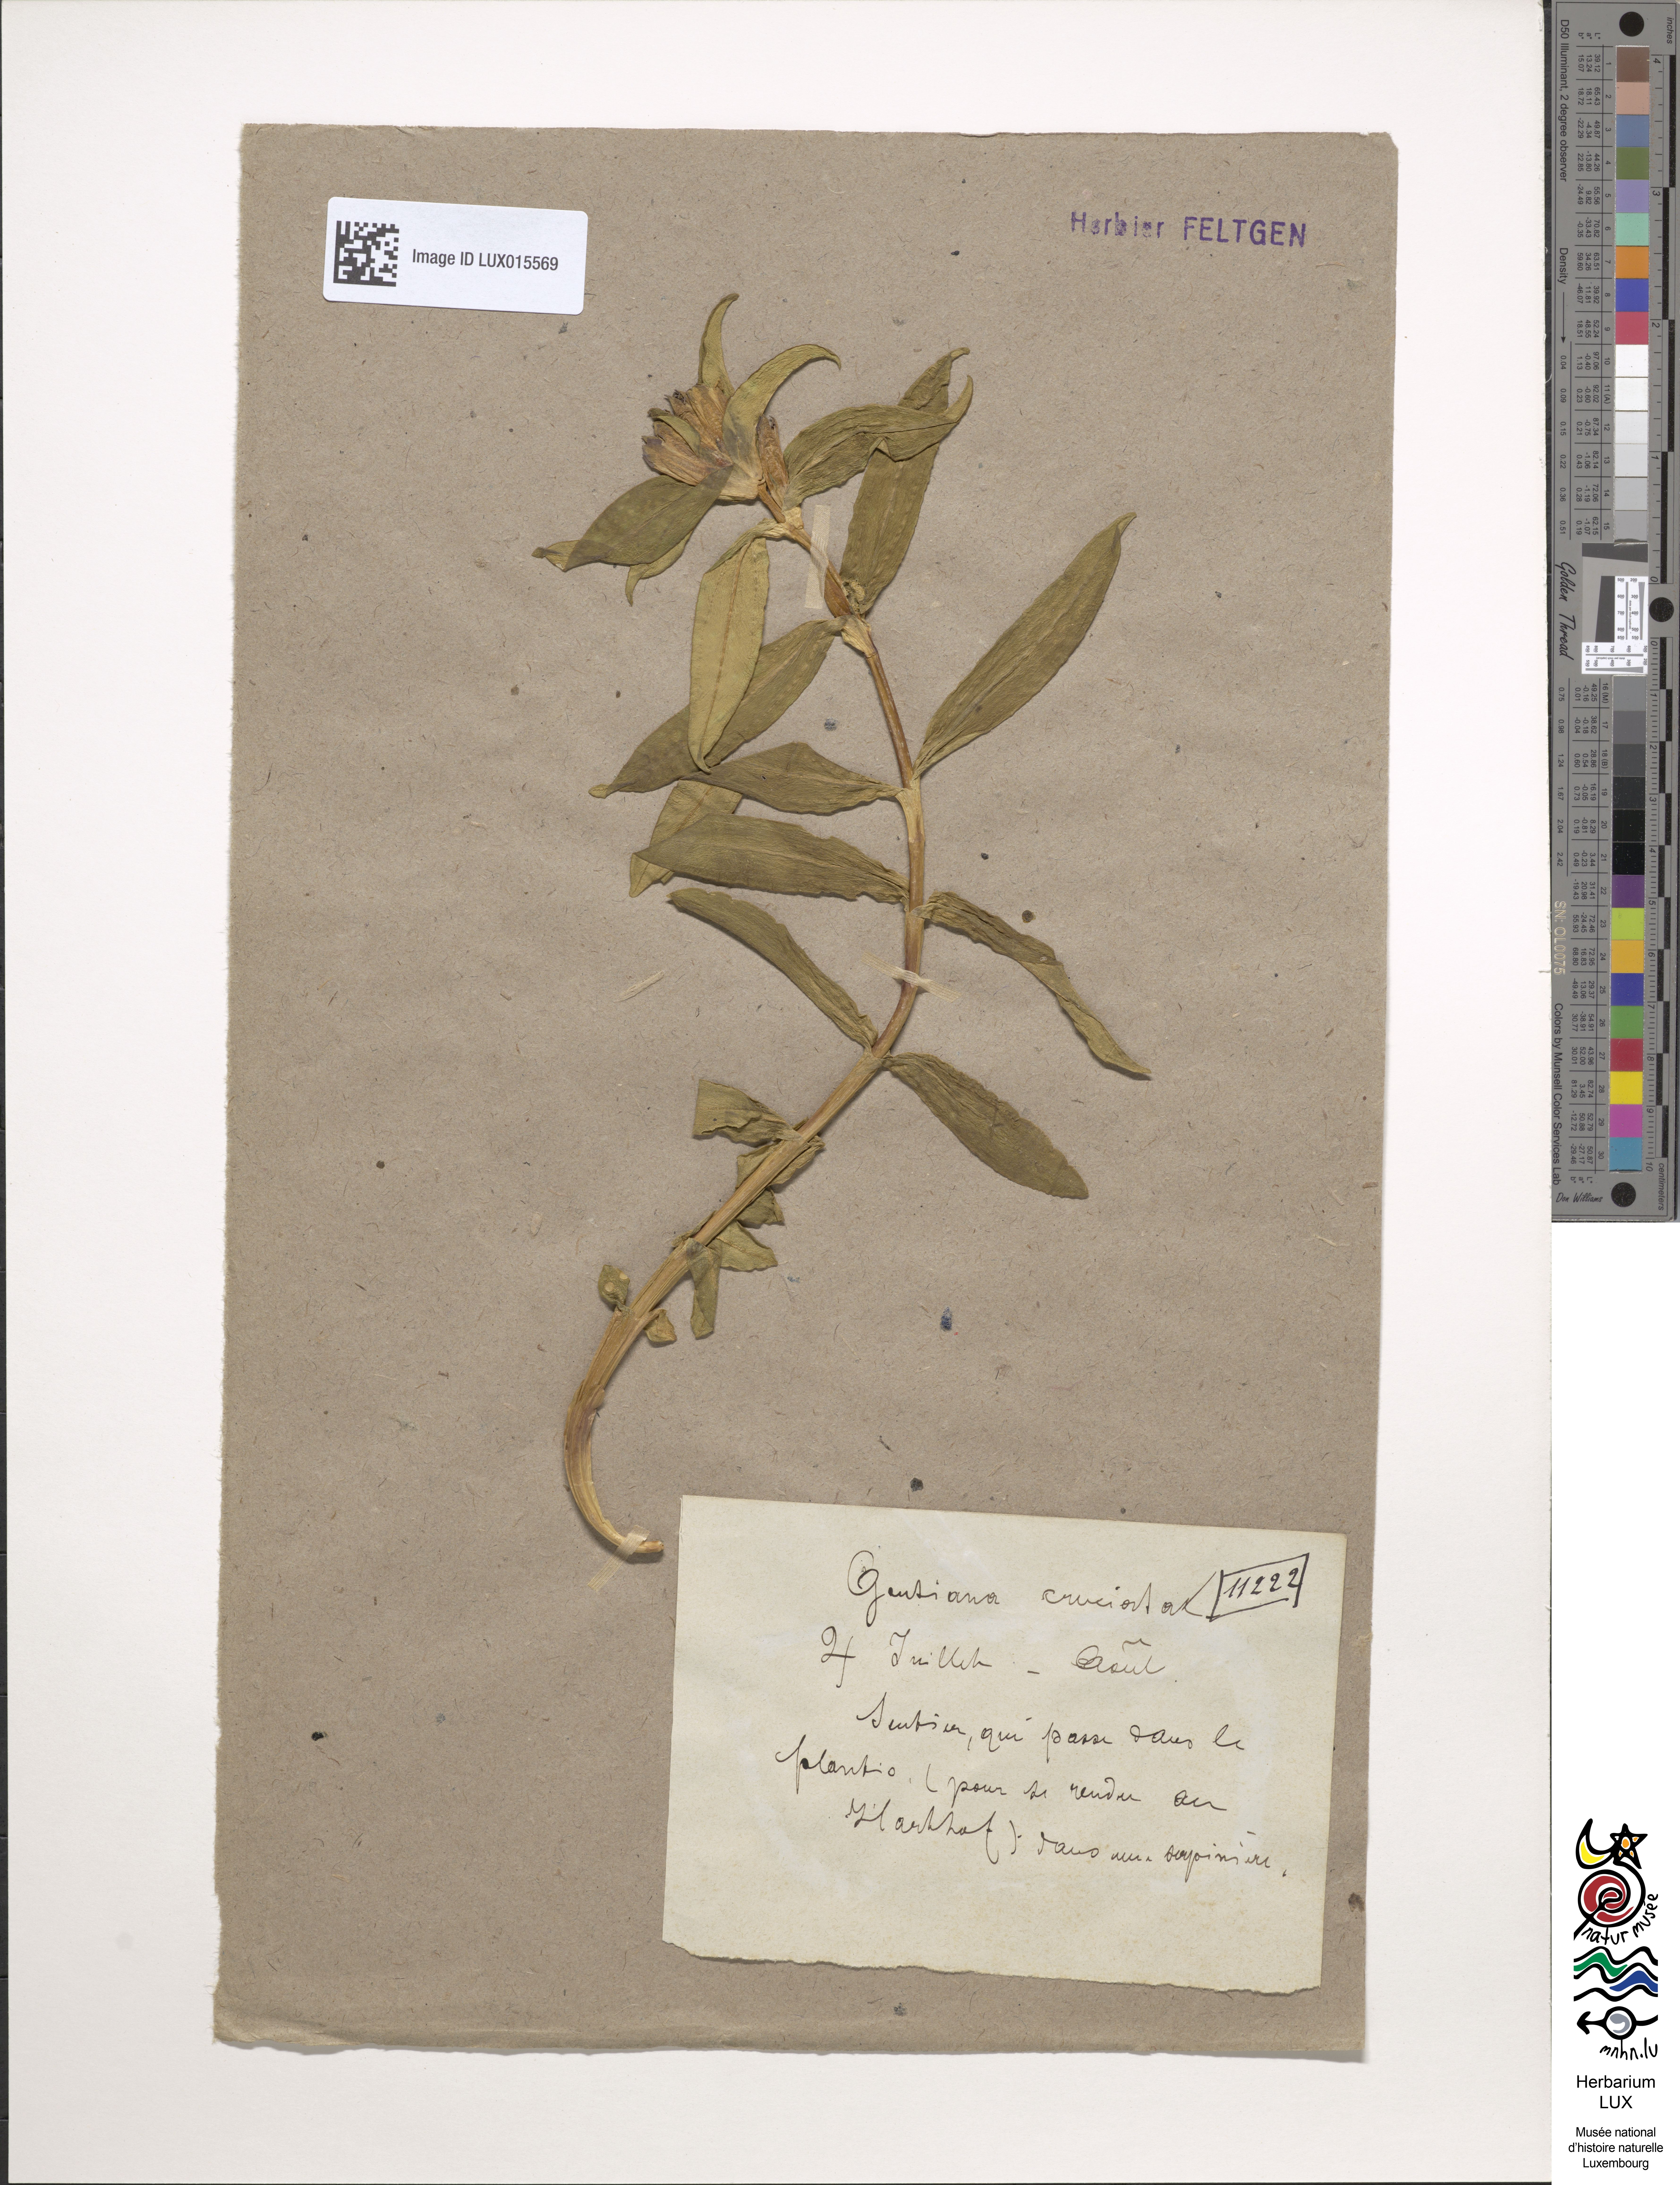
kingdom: Plantae
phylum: Tracheophyta
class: Magnoliopsida
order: Gentianales
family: Gentianaceae
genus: Gentiana
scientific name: Gentiana cruciata
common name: Cross gentian
